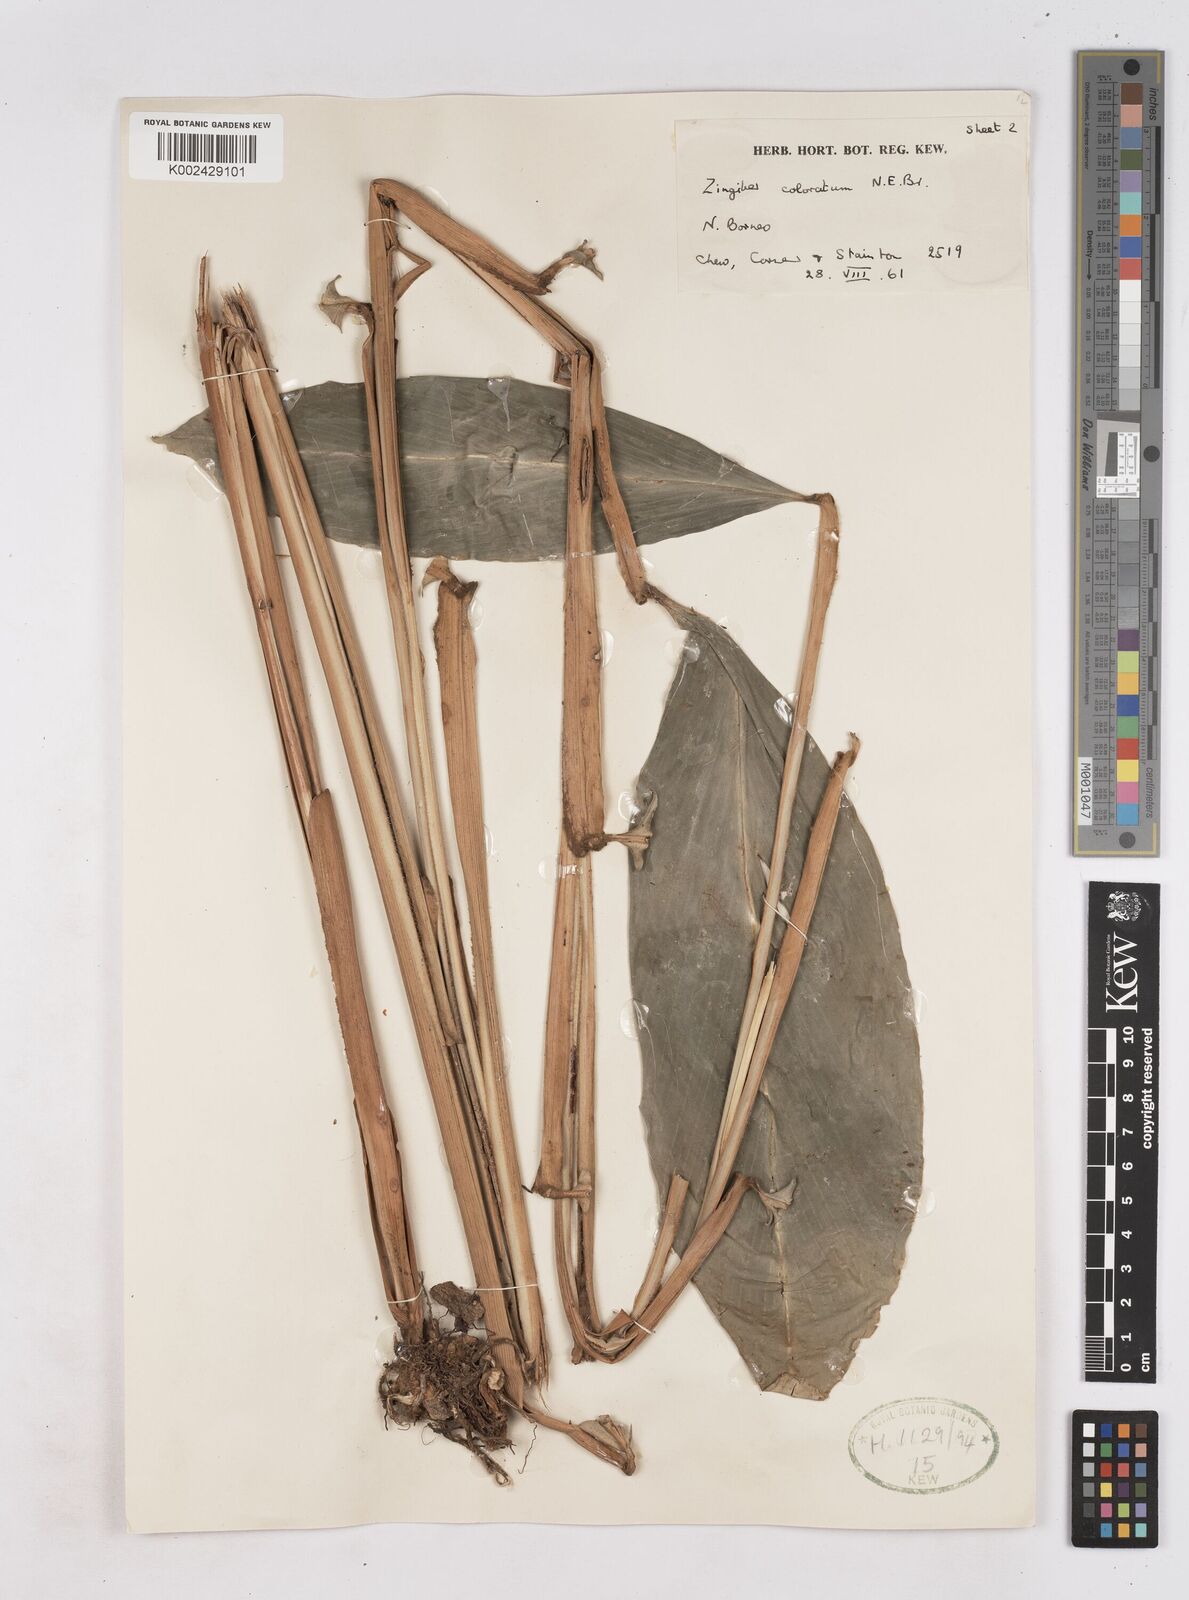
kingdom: Plantae
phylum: Tracheophyta
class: Liliopsida
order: Zingiberales
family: Zingiberaceae
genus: Zingiber
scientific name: Zingiber coloratum
